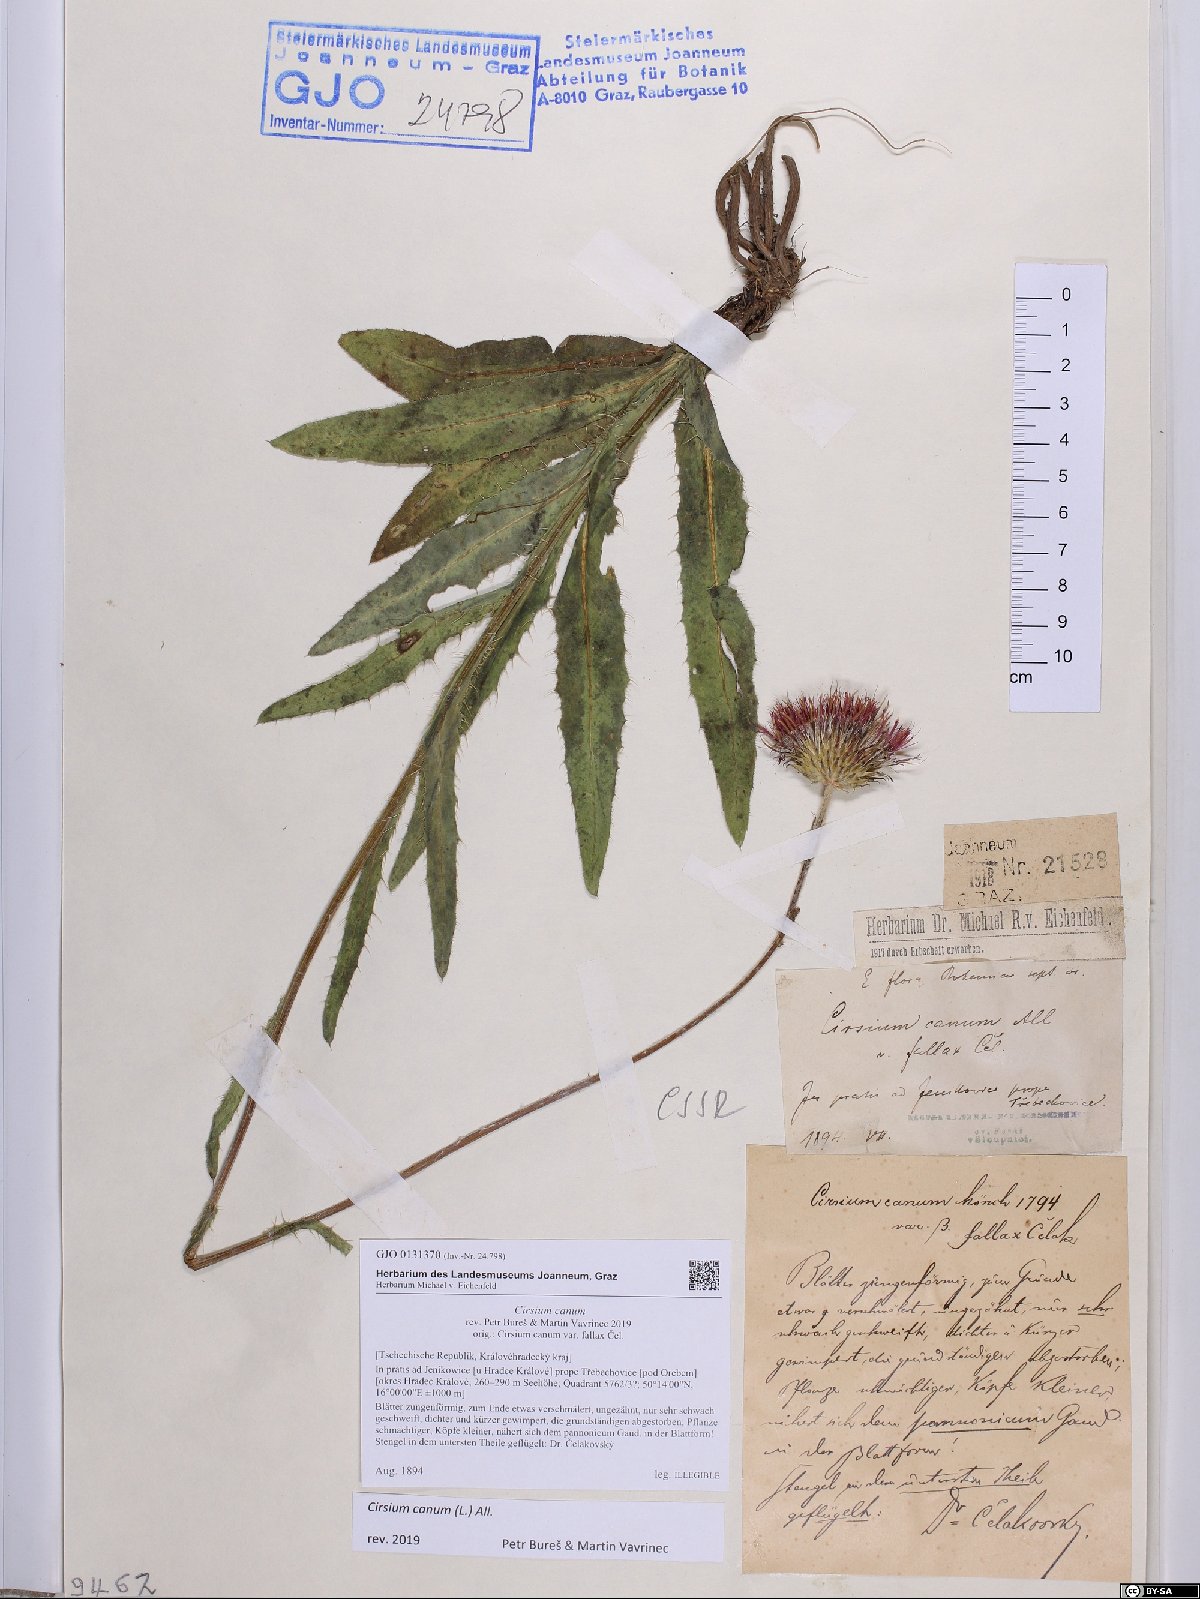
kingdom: Plantae
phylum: Tracheophyta
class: Magnoliopsida
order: Asterales
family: Asteraceae
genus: Cirsium
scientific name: Cirsium canum
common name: Queen anne's thistle
